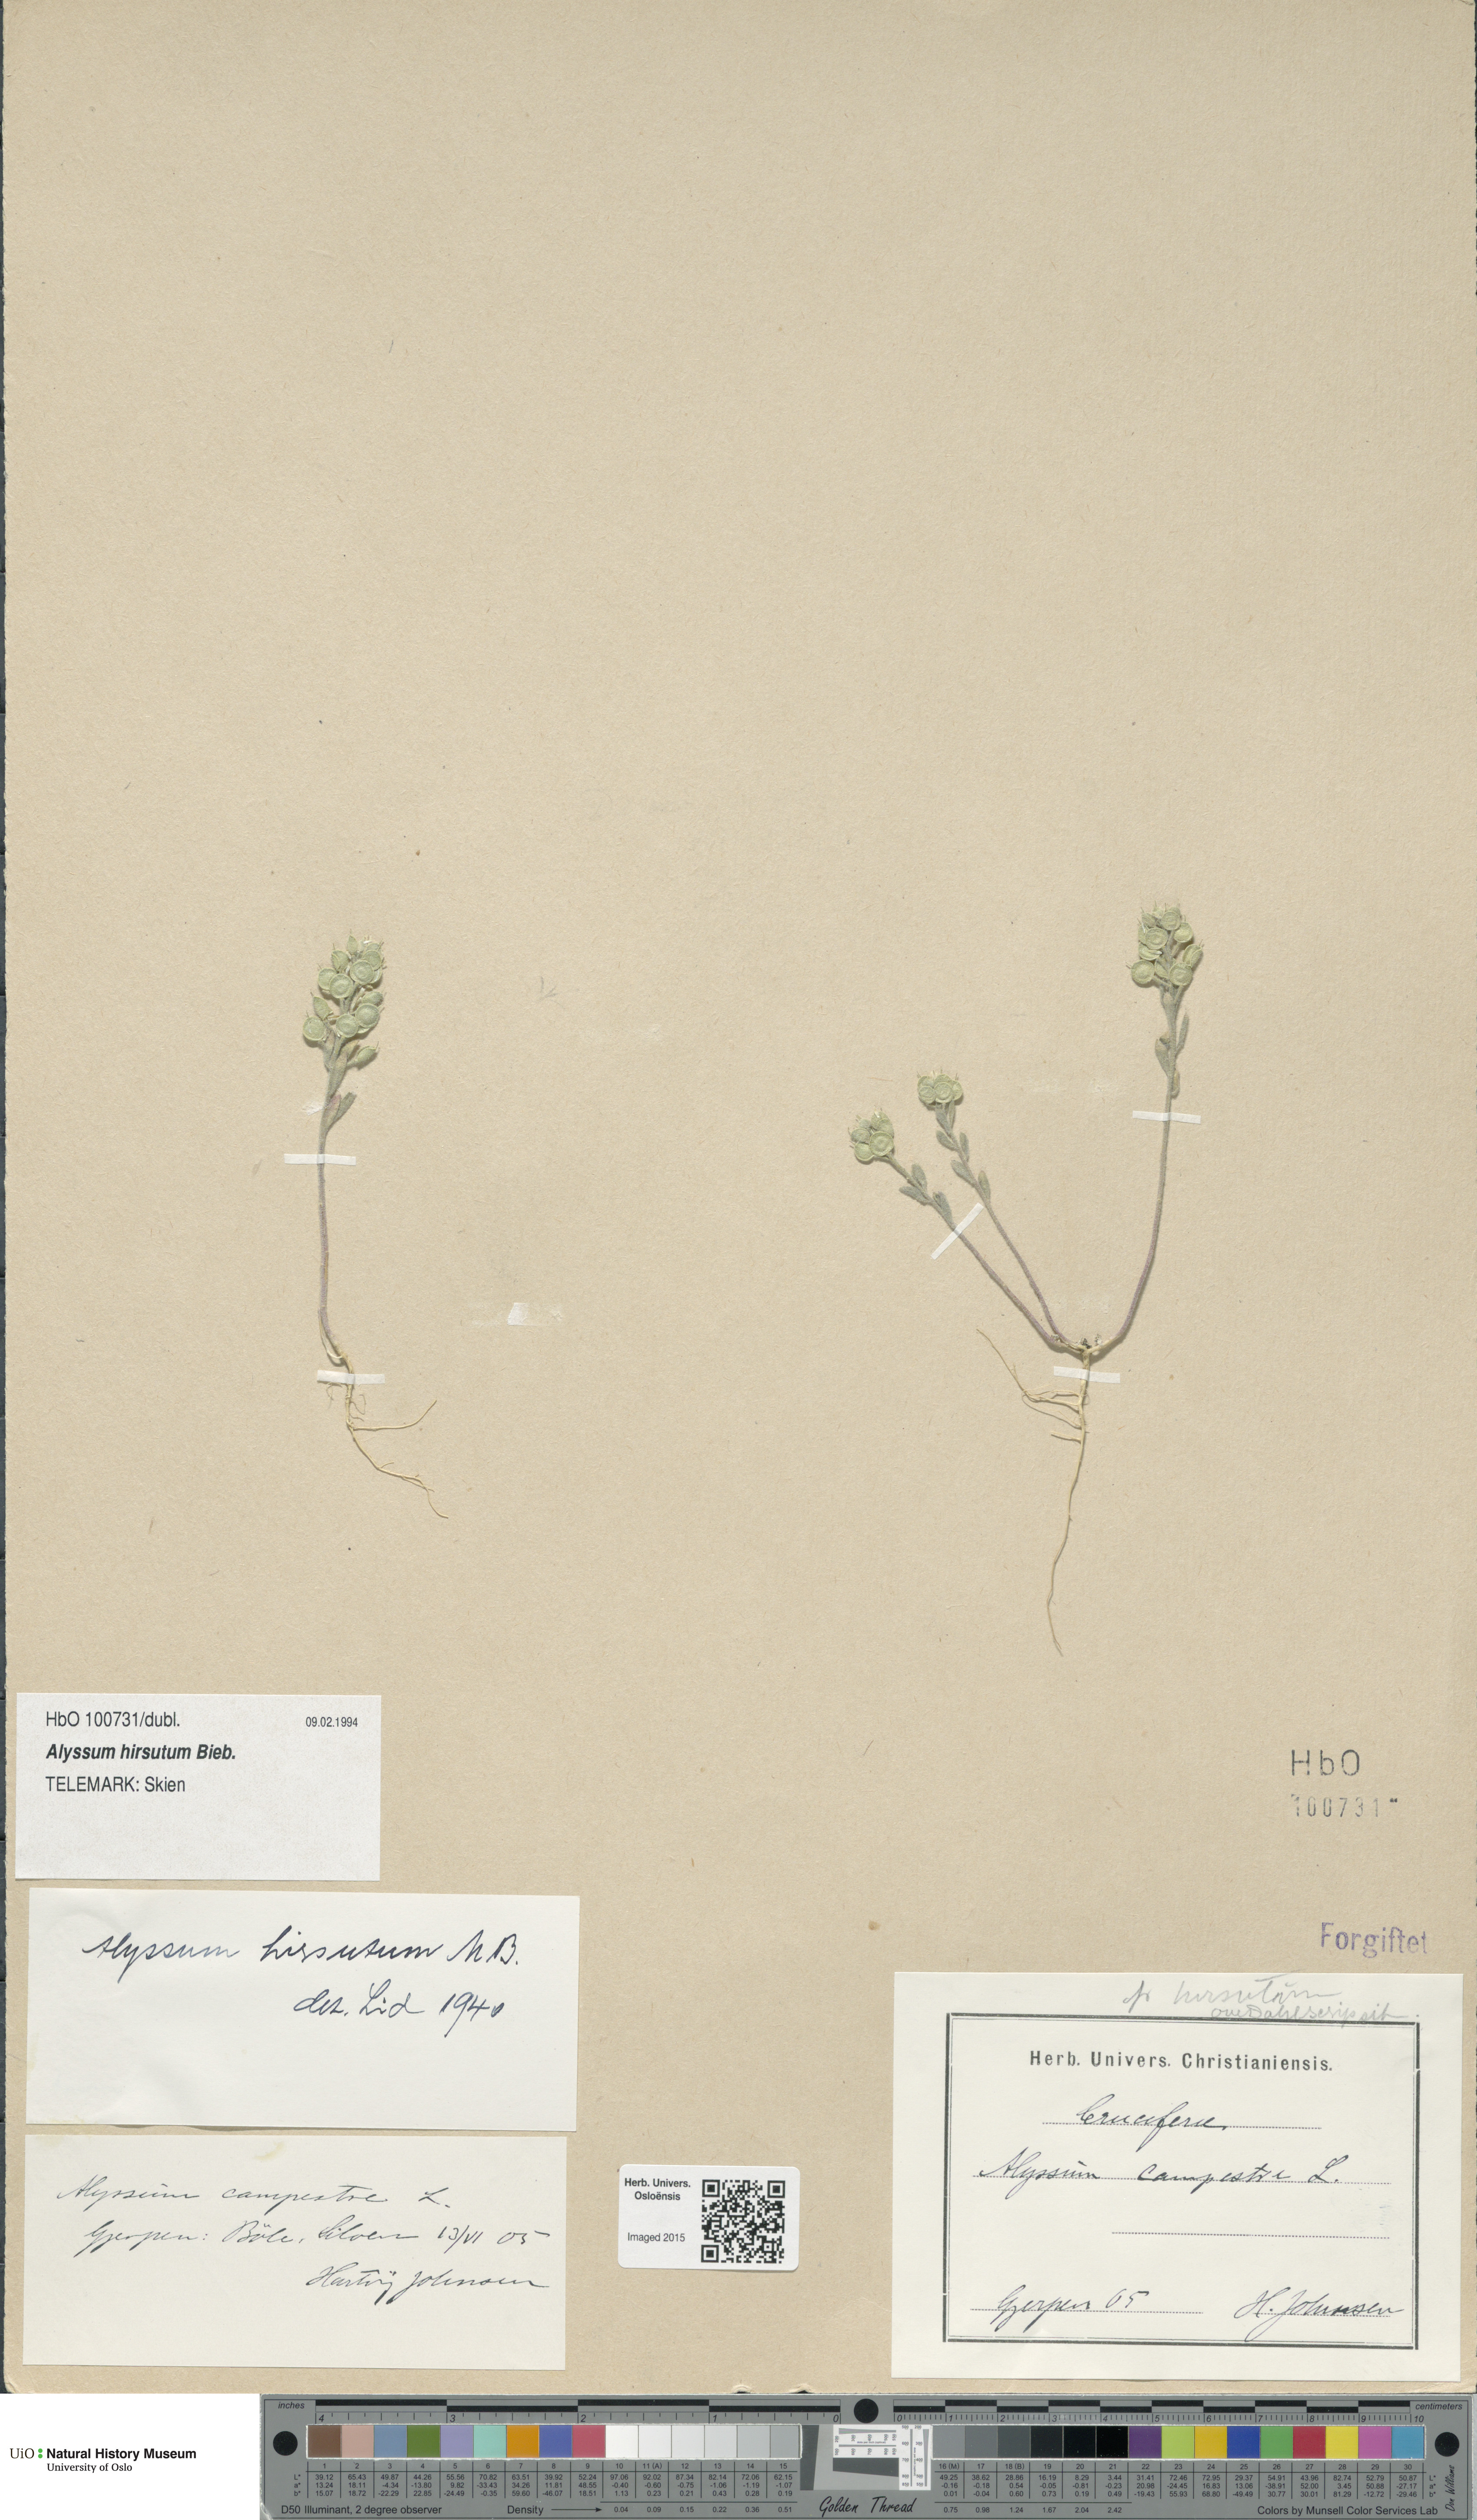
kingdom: Plantae
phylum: Tracheophyta
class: Magnoliopsida
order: Brassicales
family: Brassicaceae
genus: Alyssum
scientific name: Alyssum hirsutum
